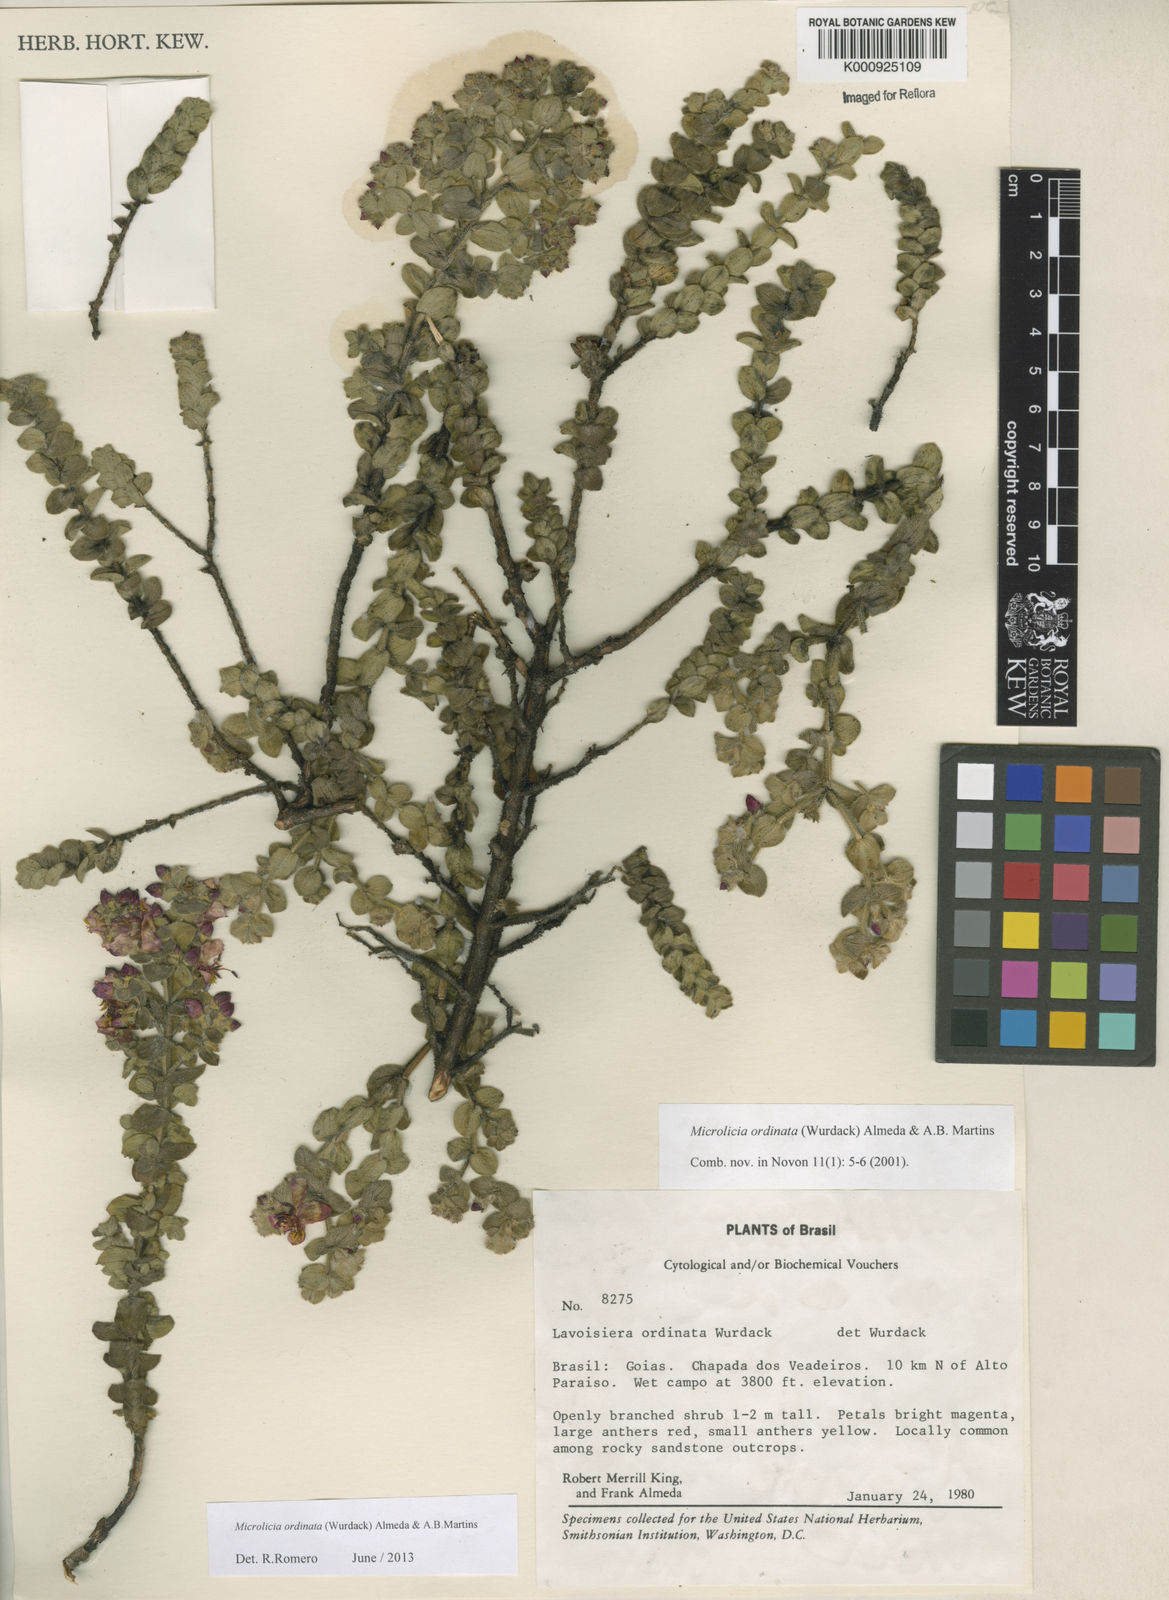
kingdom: Plantae
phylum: Tracheophyta
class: Magnoliopsida
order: Myrtales
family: Melastomataceae
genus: Microlicia
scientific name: Microlicia ordinata
